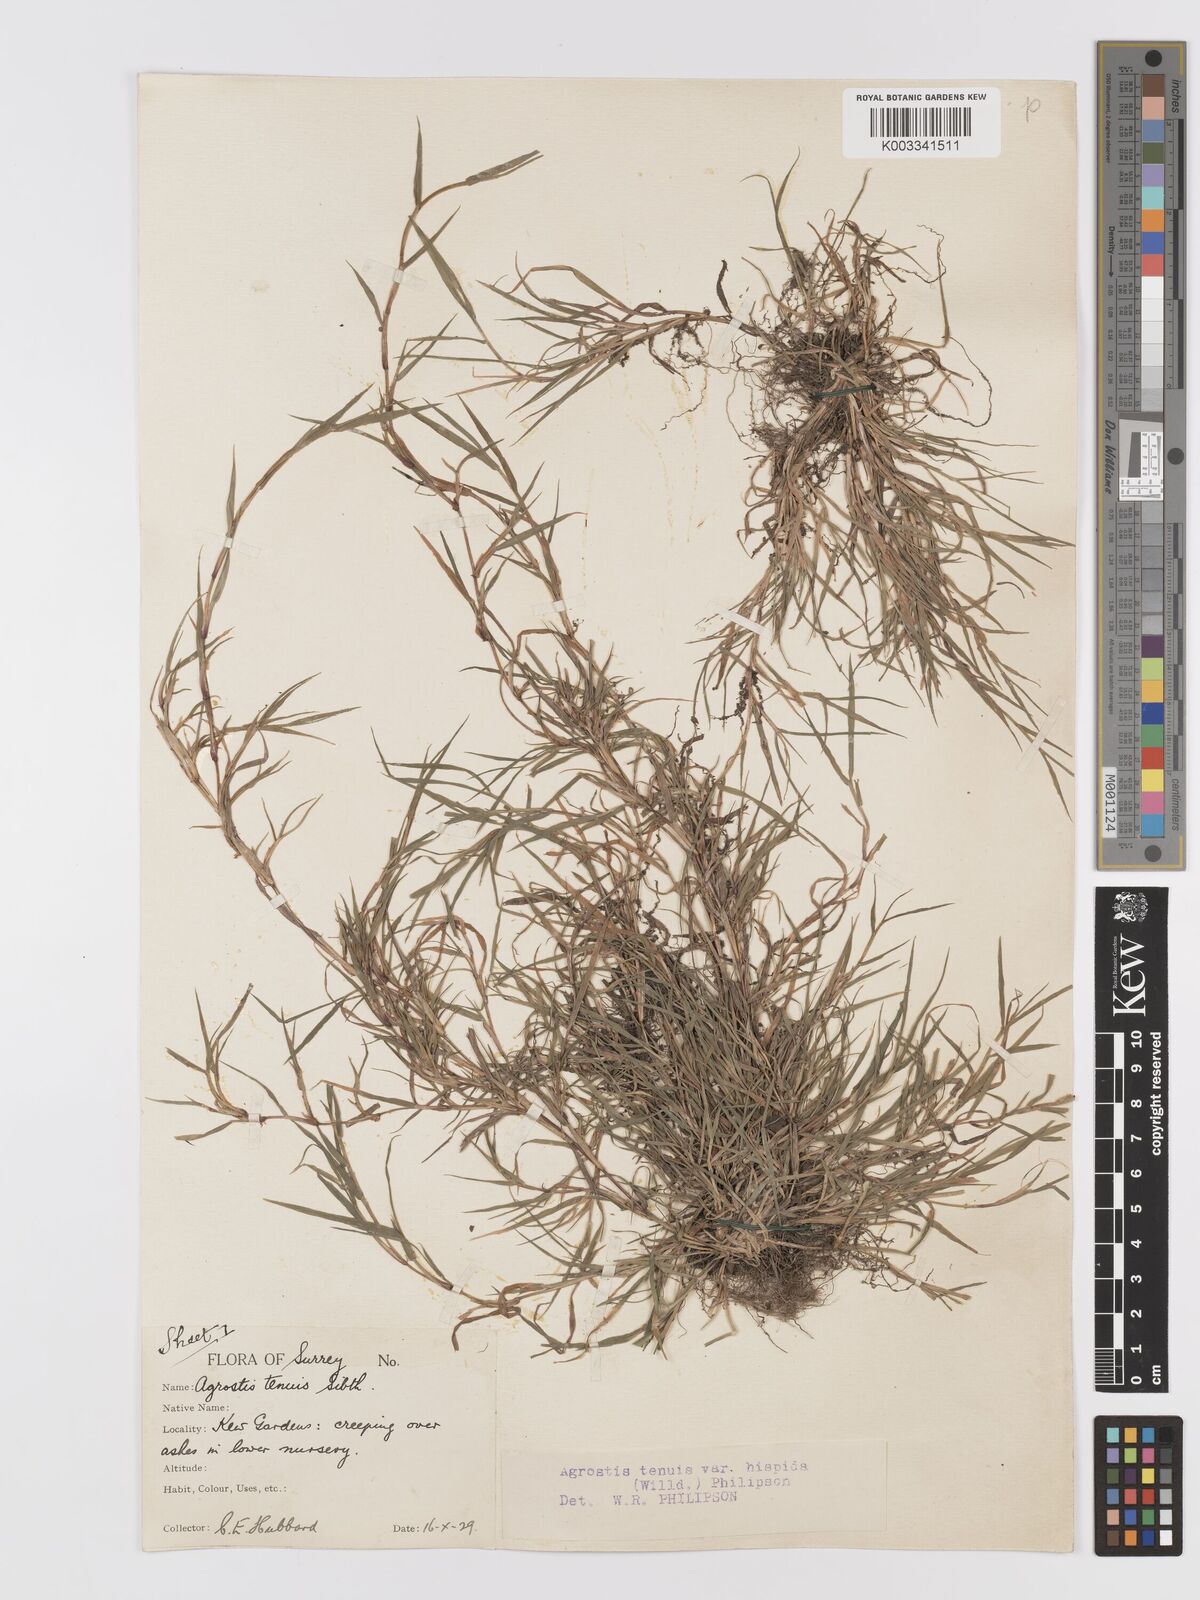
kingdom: Plantae
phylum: Tracheophyta
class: Liliopsida
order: Poales
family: Poaceae
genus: Agrostis
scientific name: Agrostis stolonifera
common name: Creeping bentgrass
